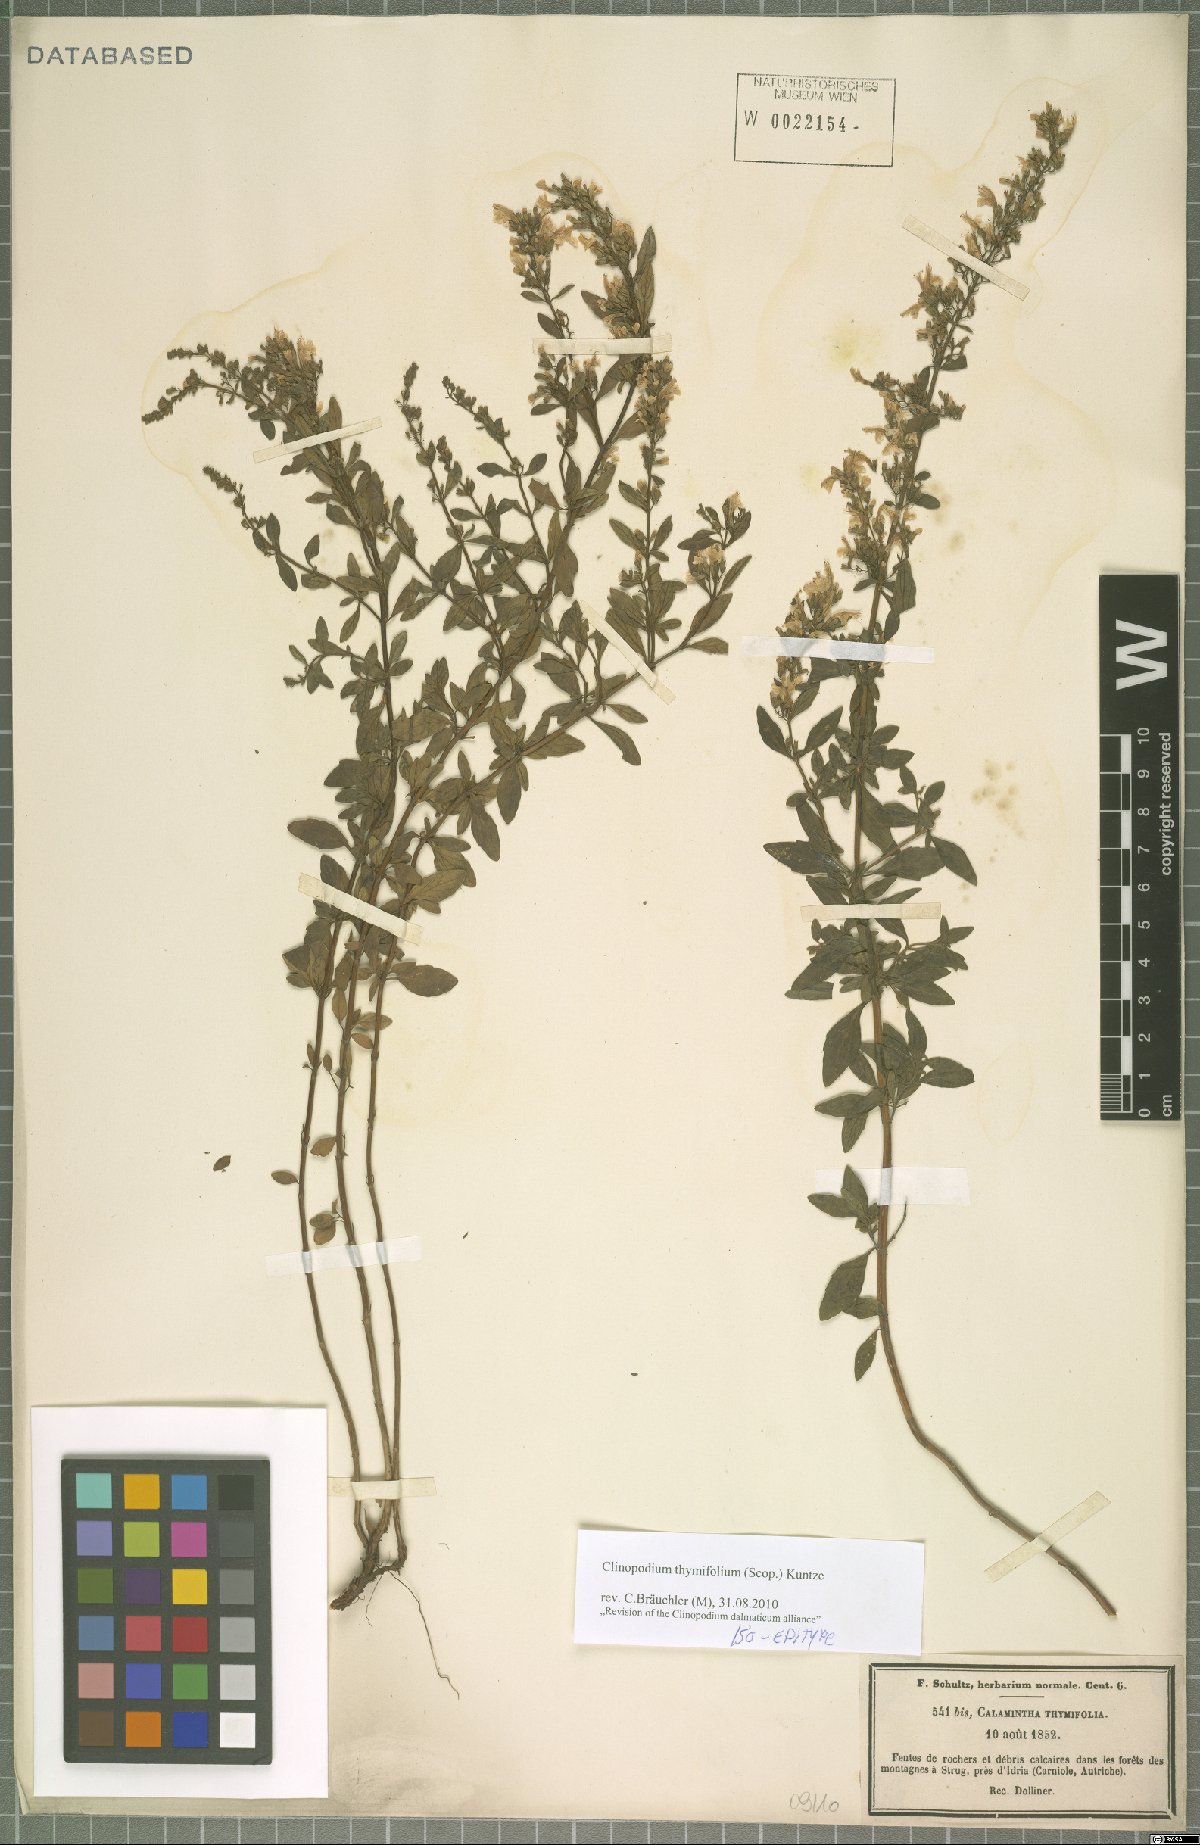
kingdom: Plantae
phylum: Tracheophyta
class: Magnoliopsida
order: Lamiales
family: Lamiaceae
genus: Clinopodium
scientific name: Clinopodium hostii
